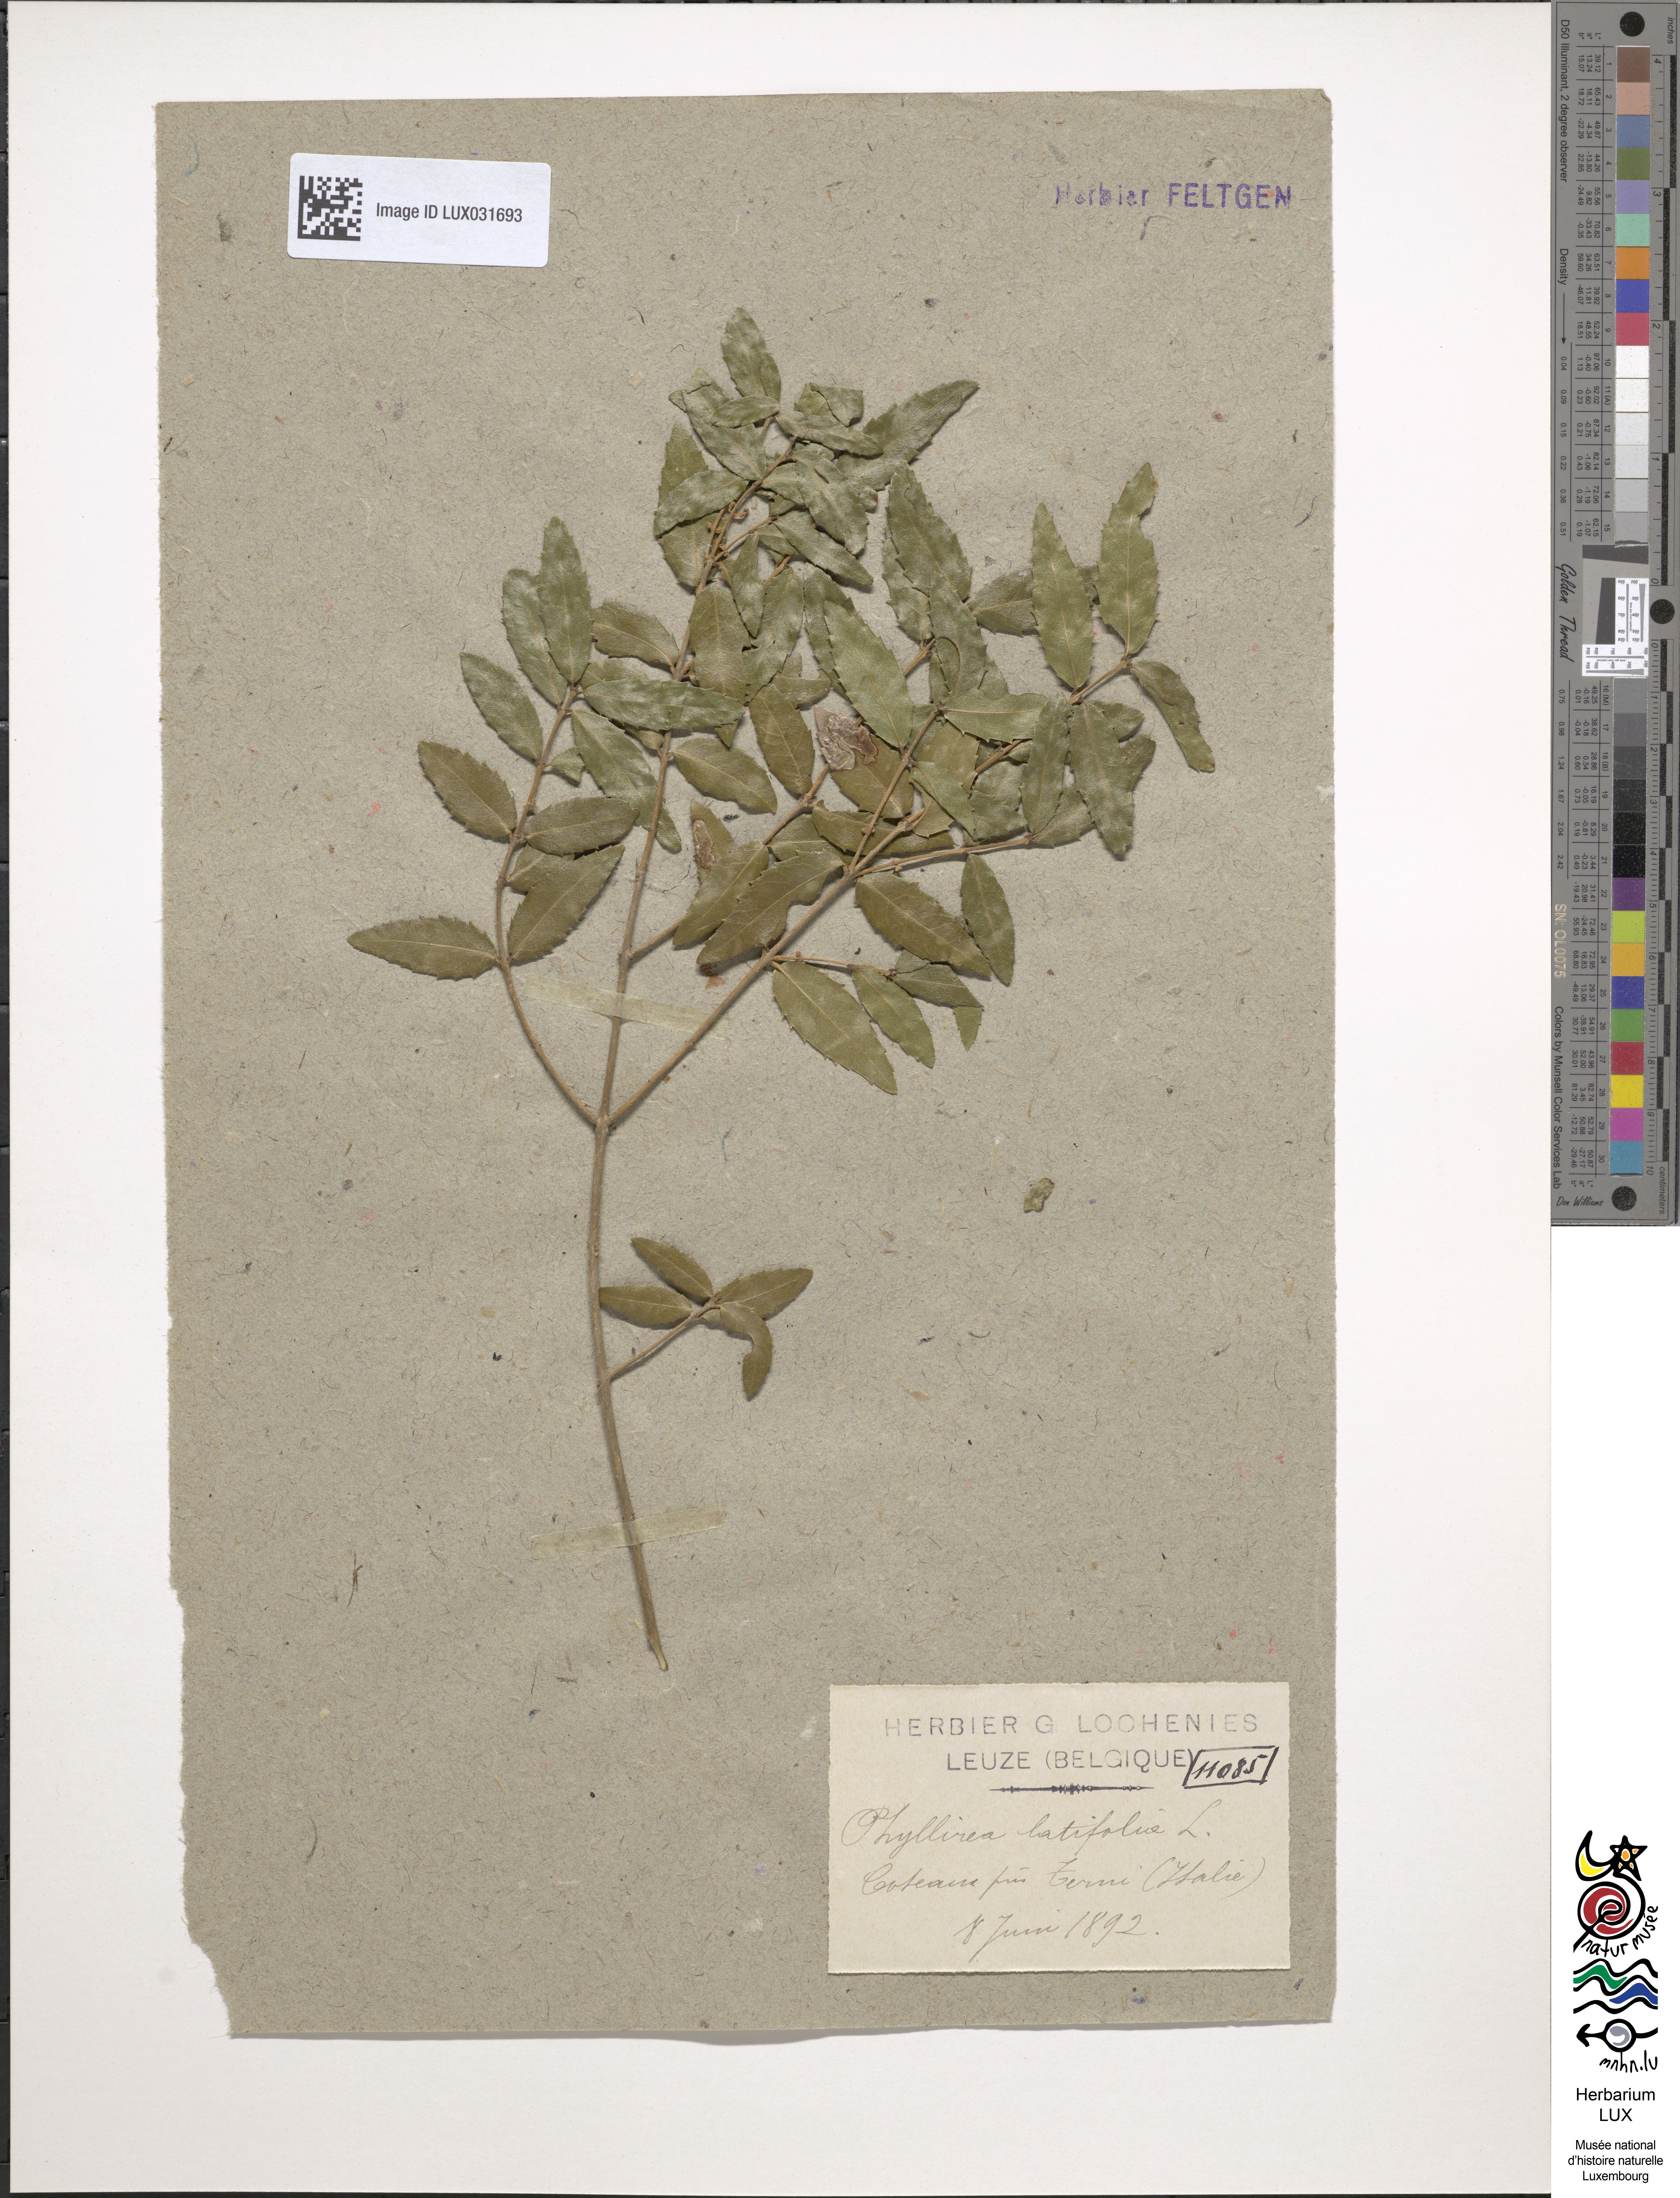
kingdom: Plantae
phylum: Tracheophyta
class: Magnoliopsida
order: Lamiales
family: Oleaceae
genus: Phillyrea
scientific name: Phillyrea latifolia
